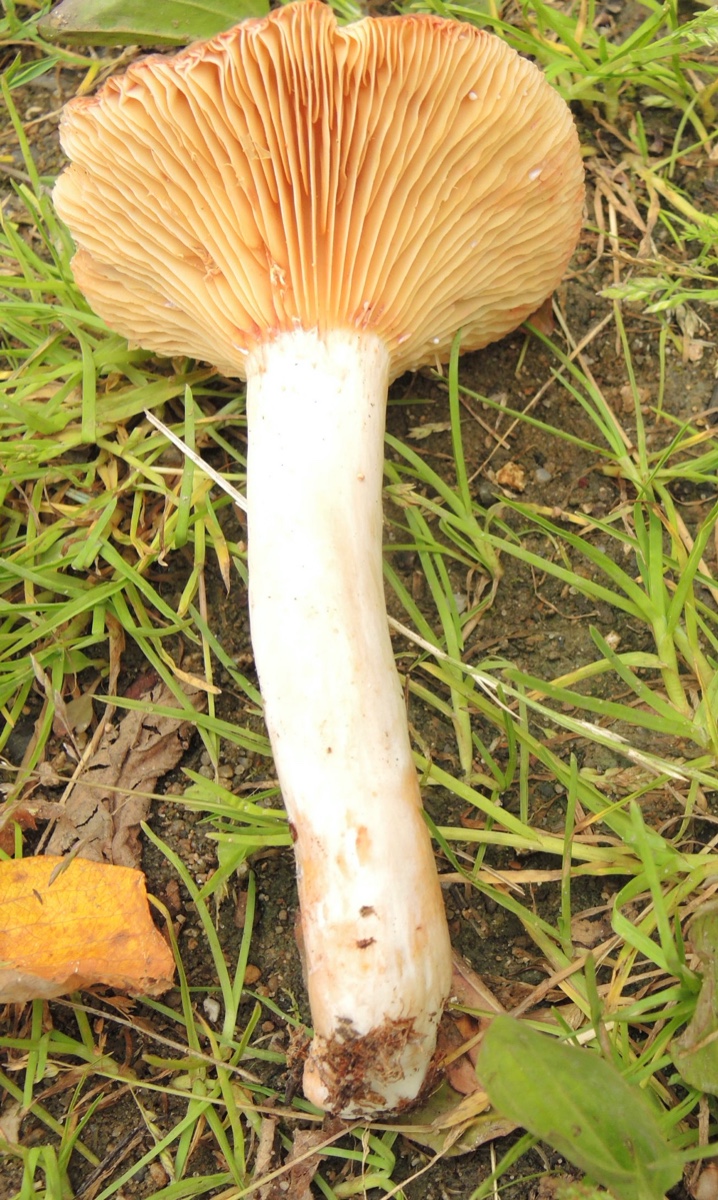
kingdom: Fungi
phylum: Basidiomycota
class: Agaricomycetes
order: Russulales
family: Russulaceae
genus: Lactarius
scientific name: Lactarius pyrogalus
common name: hassel-mælkehat
